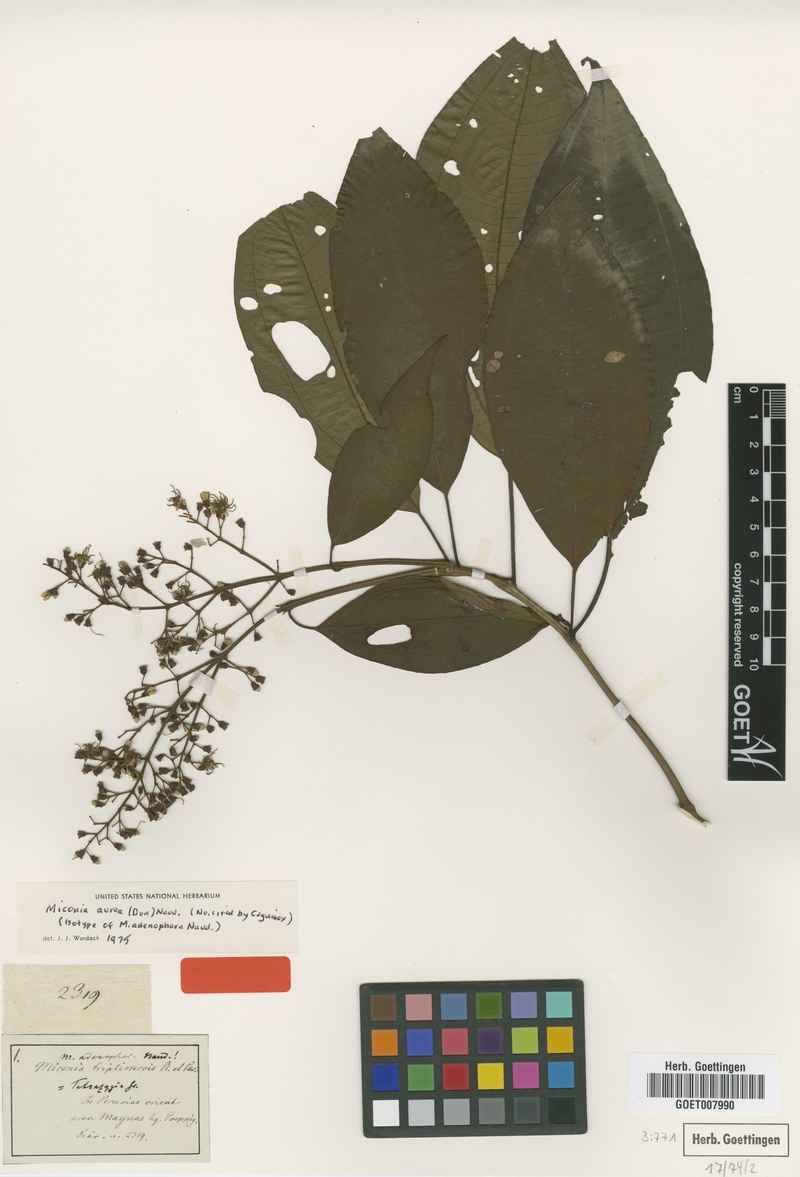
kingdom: Plantae
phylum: Tracheophyta
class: Magnoliopsida
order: Myrtales
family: Melastomataceae
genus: Miconia
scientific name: Miconia aurea
